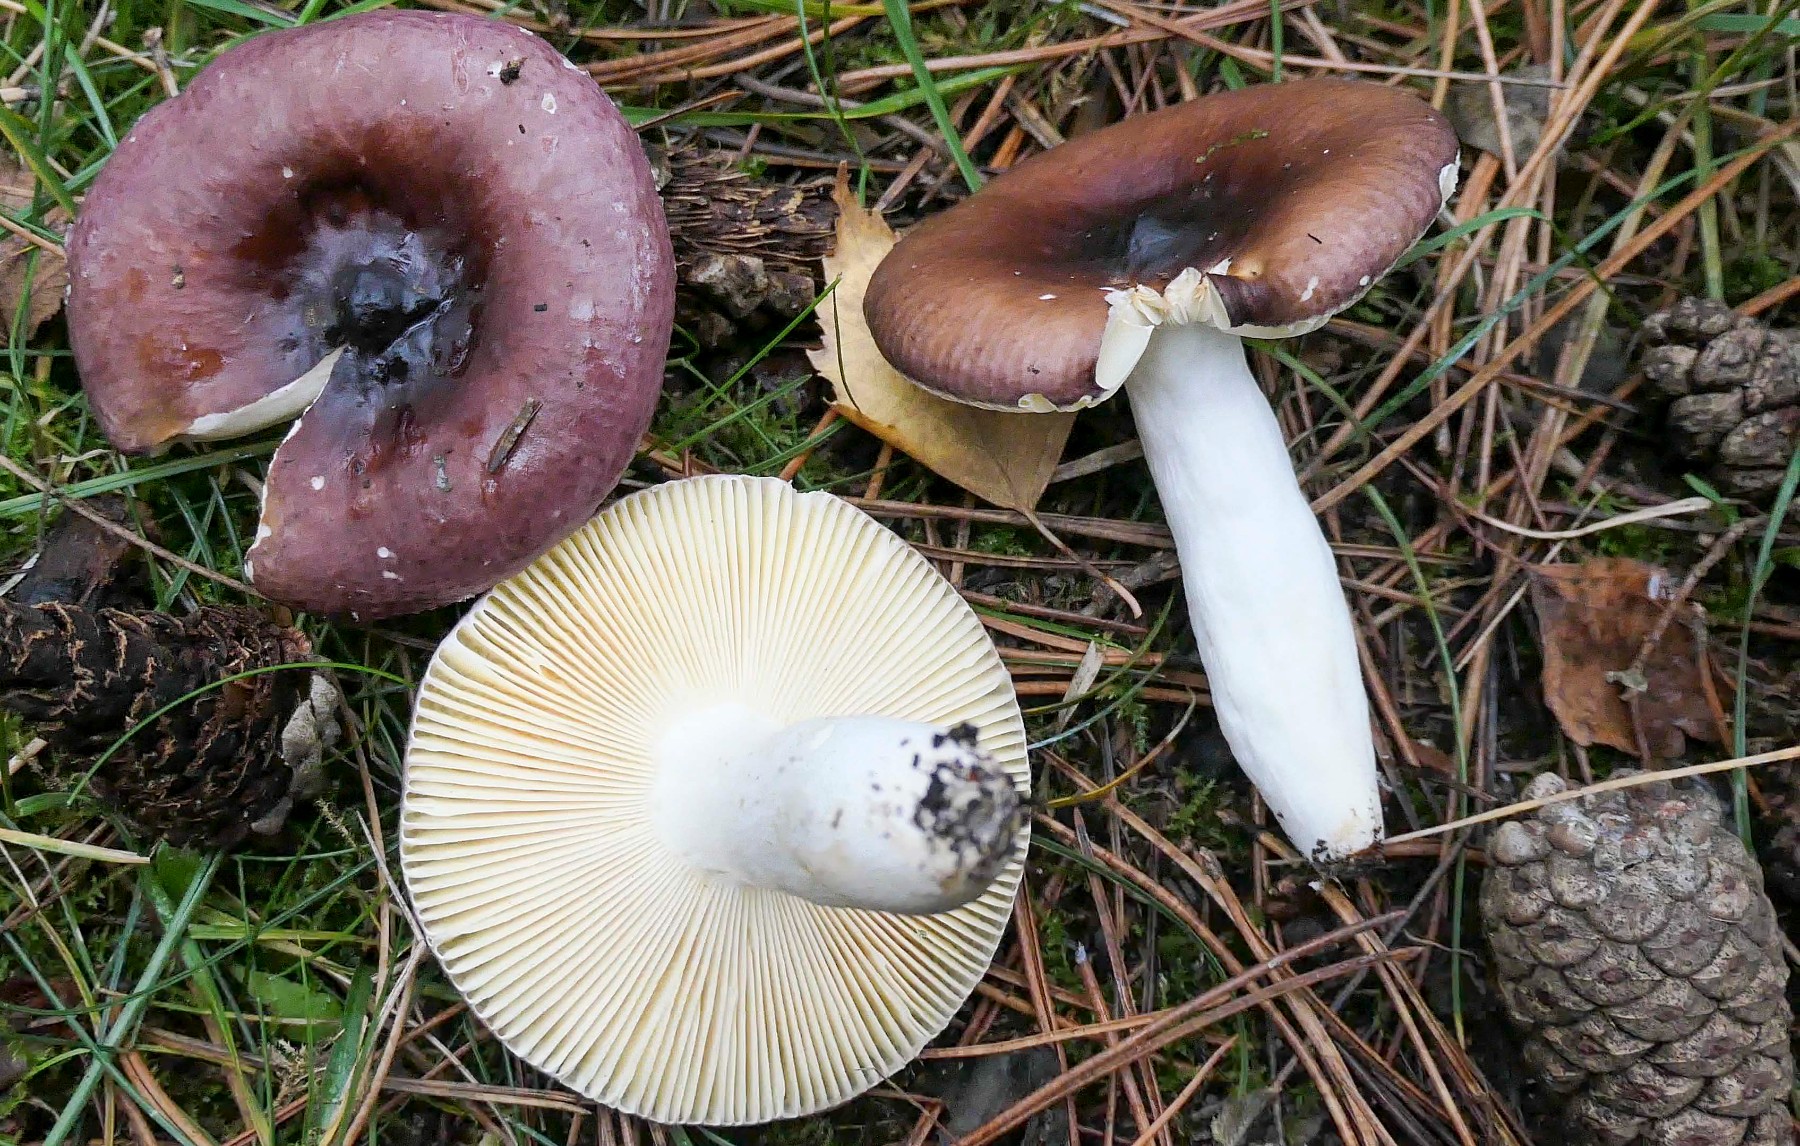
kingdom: Fungi
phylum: Basidiomycota
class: Agaricomycetes
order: Russulales
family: Russulaceae
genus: Russula
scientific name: Russula caerulea
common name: puklet skørhat
